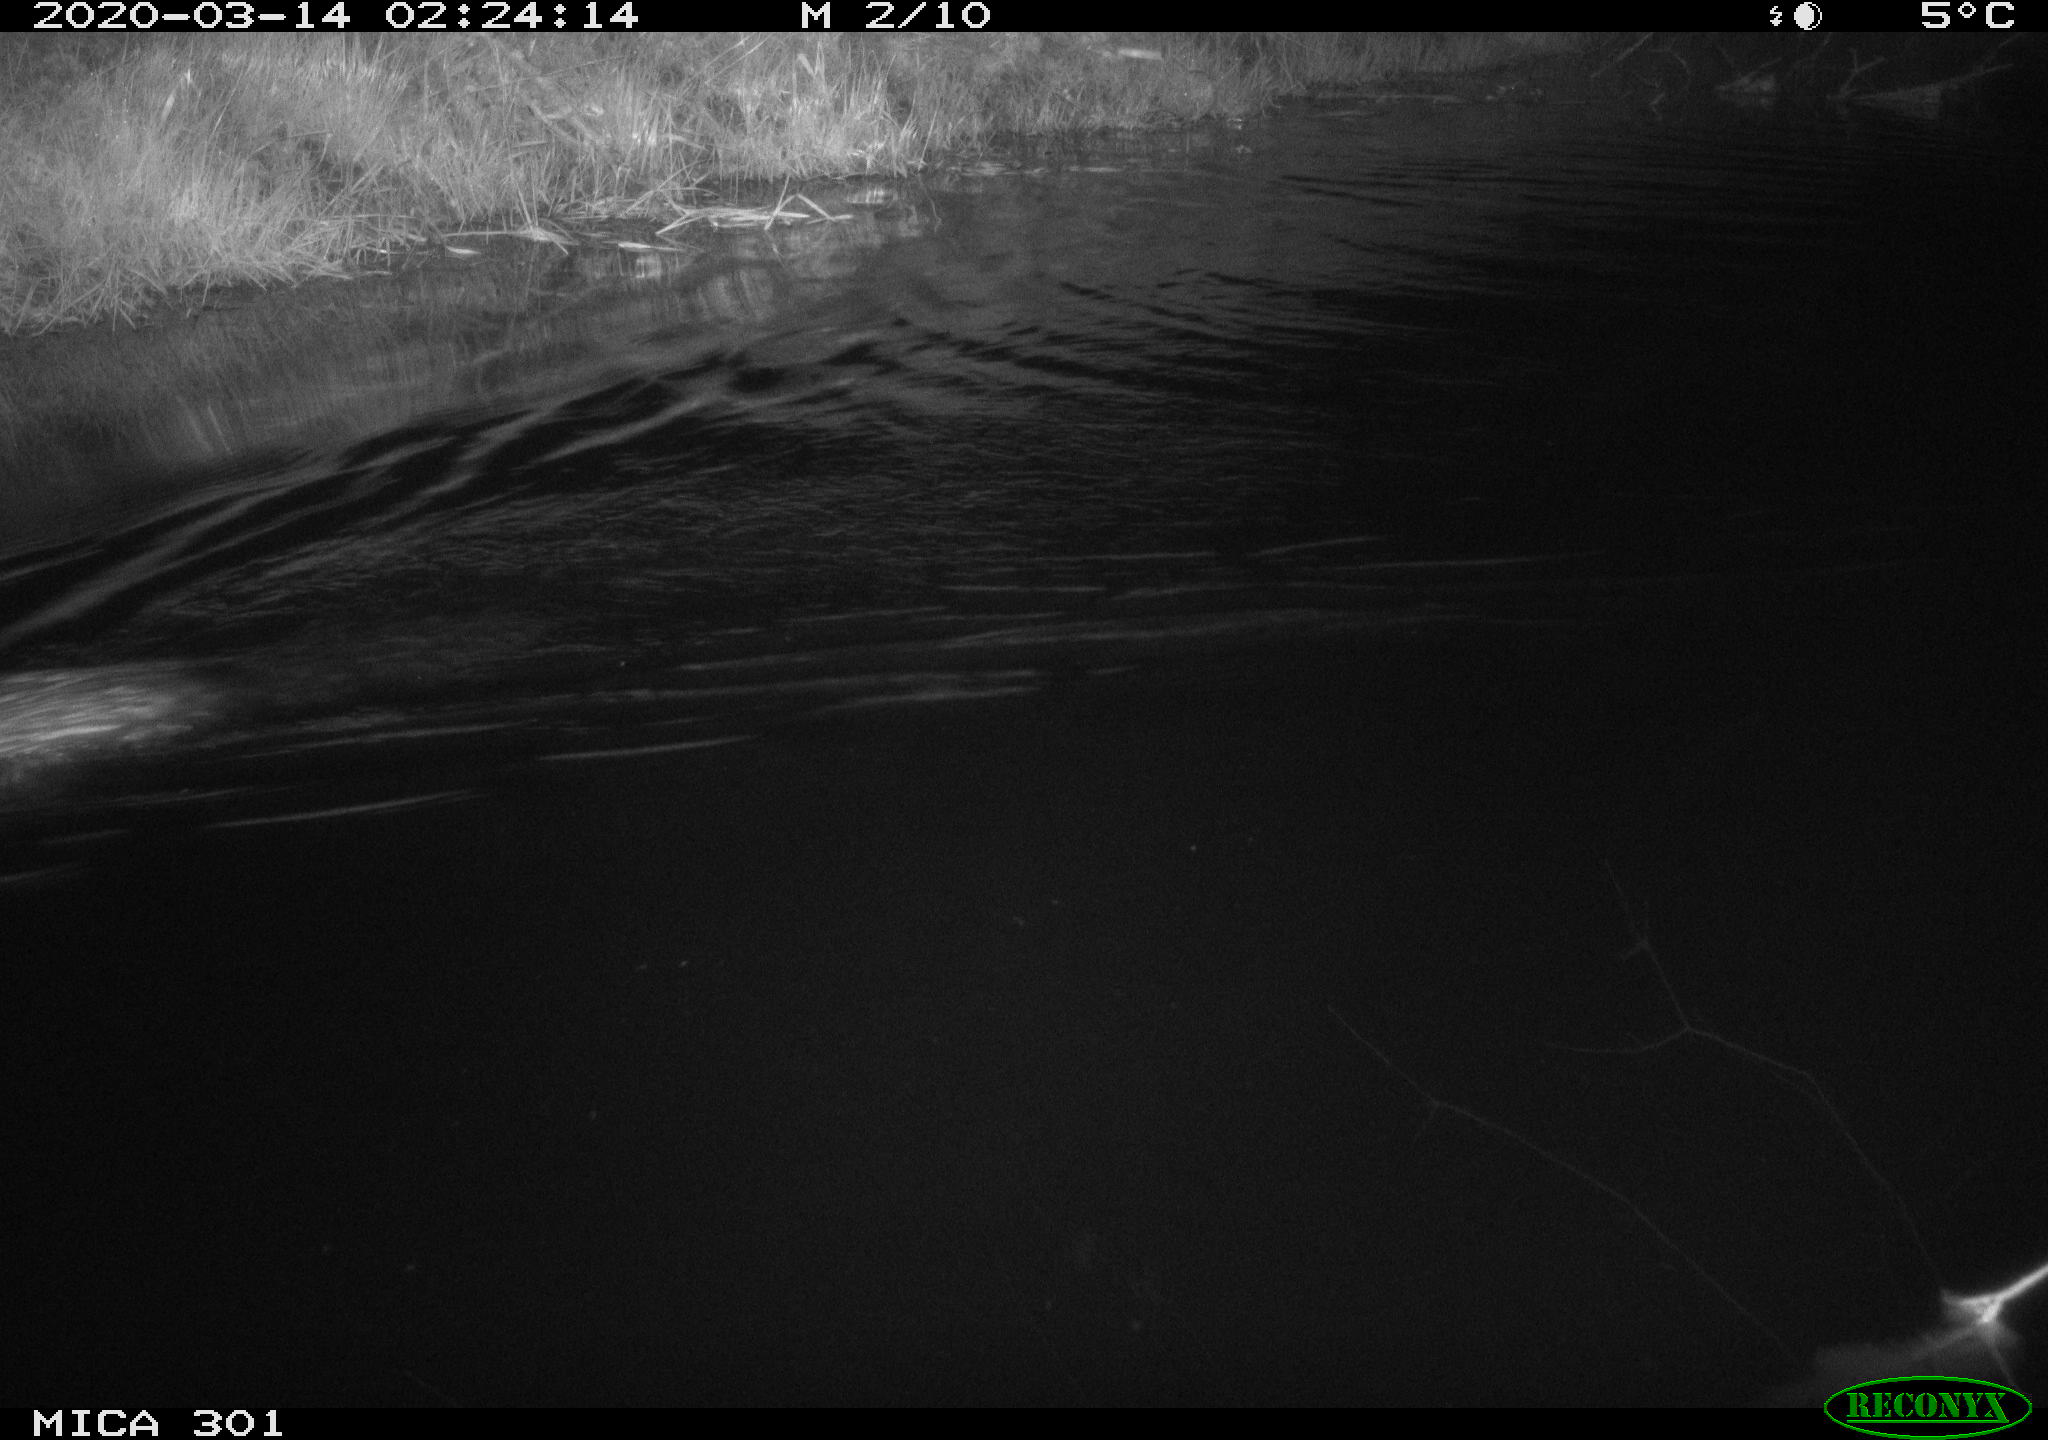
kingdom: Animalia
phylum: Chordata
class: Mammalia
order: Rodentia
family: Castoridae
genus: Castor
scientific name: Castor fiber
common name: Eurasian beaver
